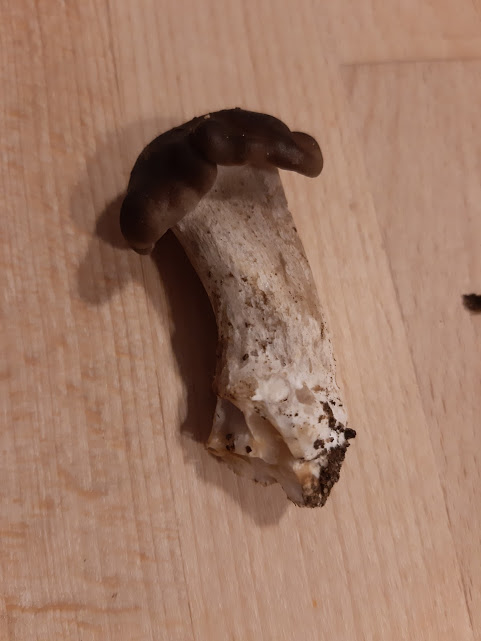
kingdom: Fungi
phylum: Basidiomycota
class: Agaricomycetes
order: Agaricales
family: Lyophyllaceae
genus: Lyophyllum
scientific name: Lyophyllum
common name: gråblad
